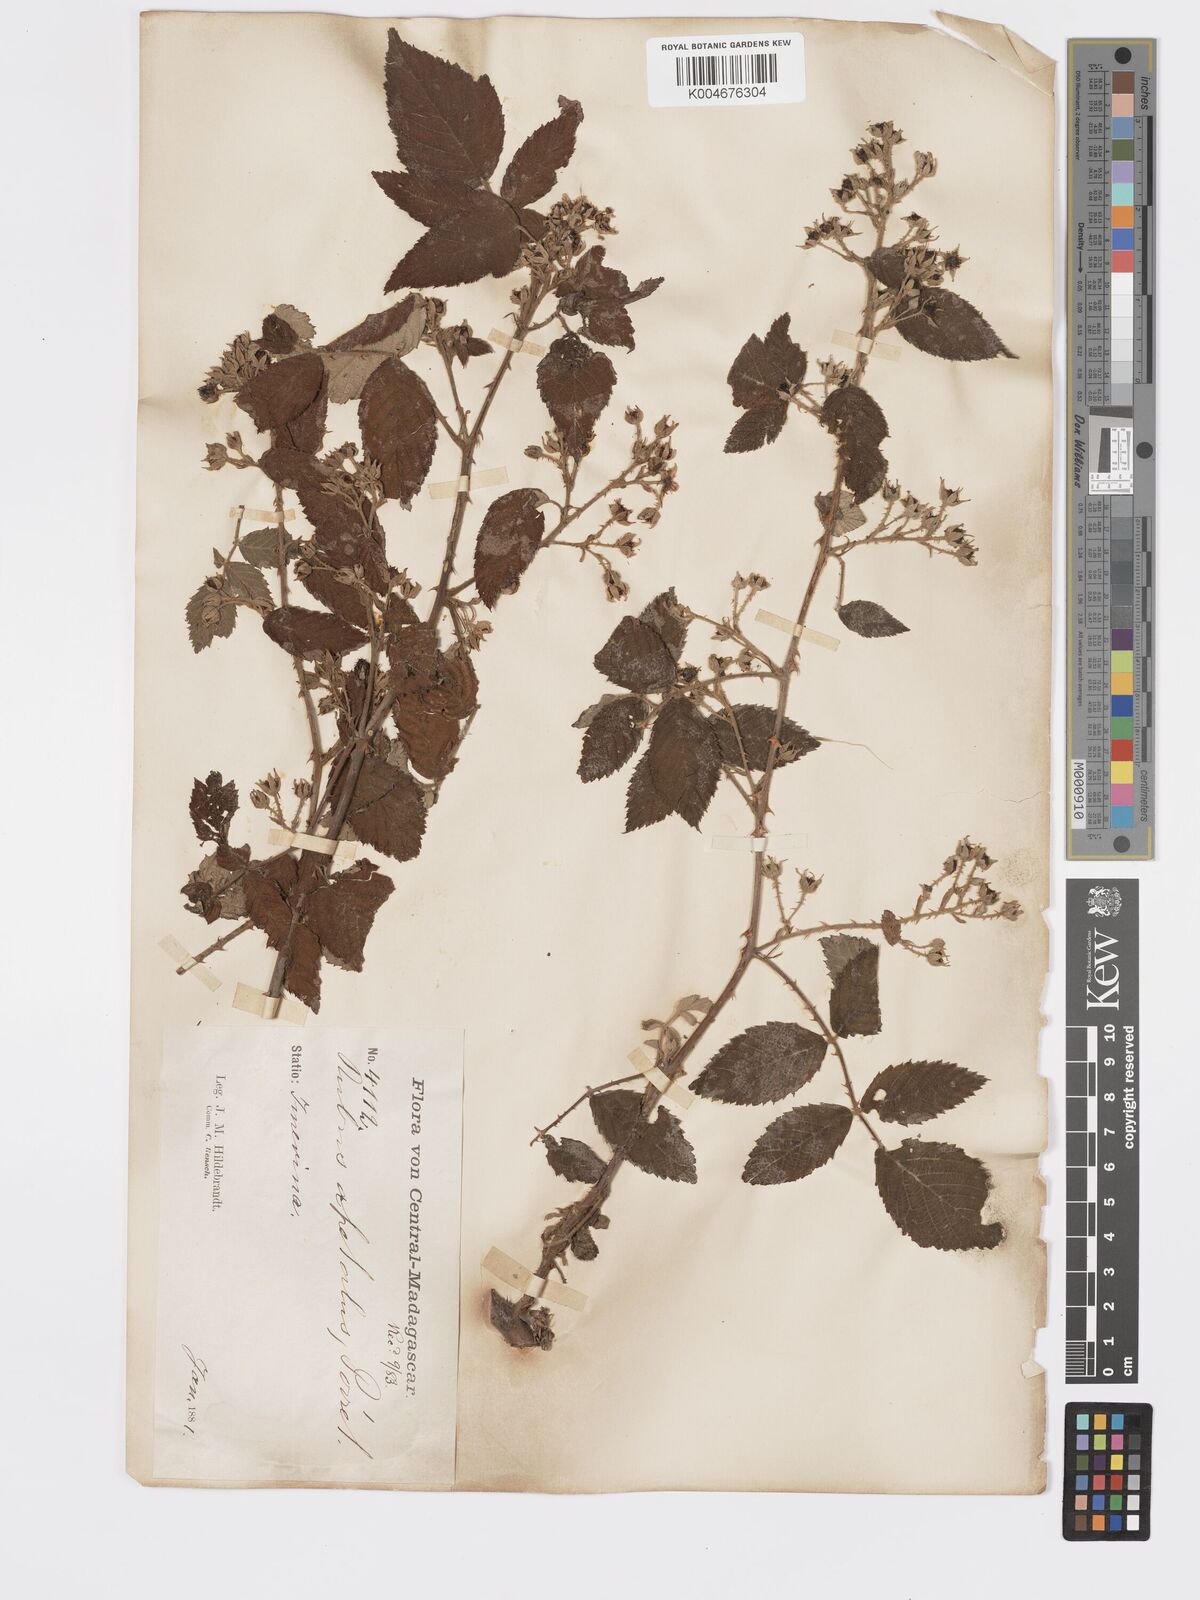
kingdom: Plantae
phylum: Tracheophyta
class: Magnoliopsida
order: Rosales
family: Rosaceae
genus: Rubus
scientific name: Rubus
